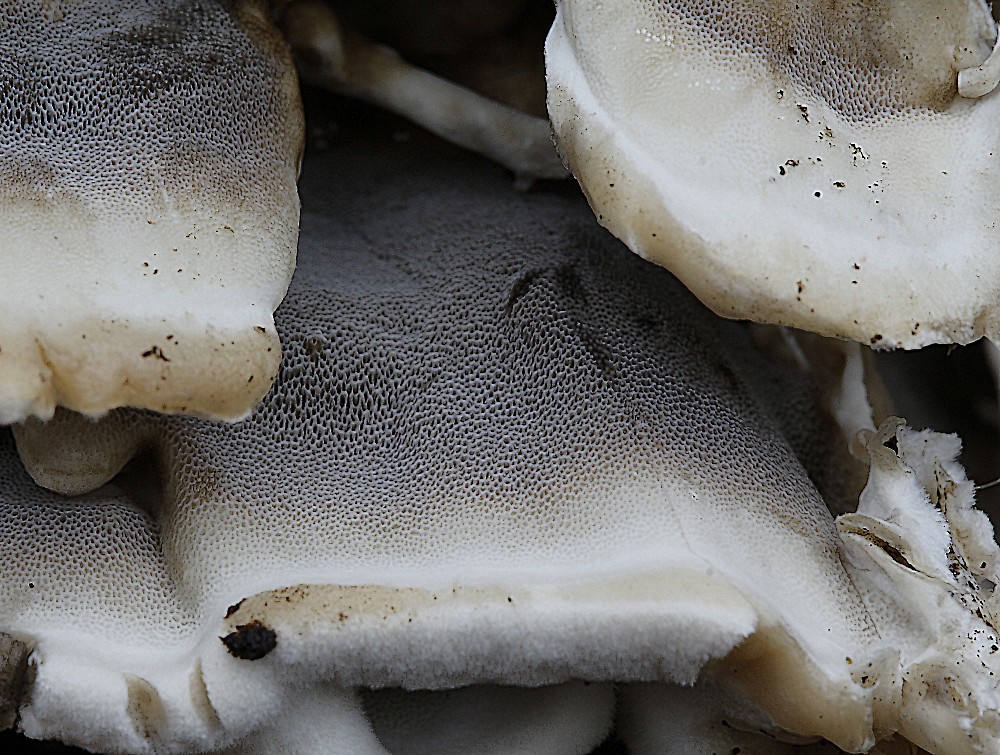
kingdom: Fungi
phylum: Basidiomycota
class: Agaricomycetes
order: Polyporales
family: Phanerochaetaceae
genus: Bjerkandera
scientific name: Bjerkandera adusta
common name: sveden sodporesvamp
